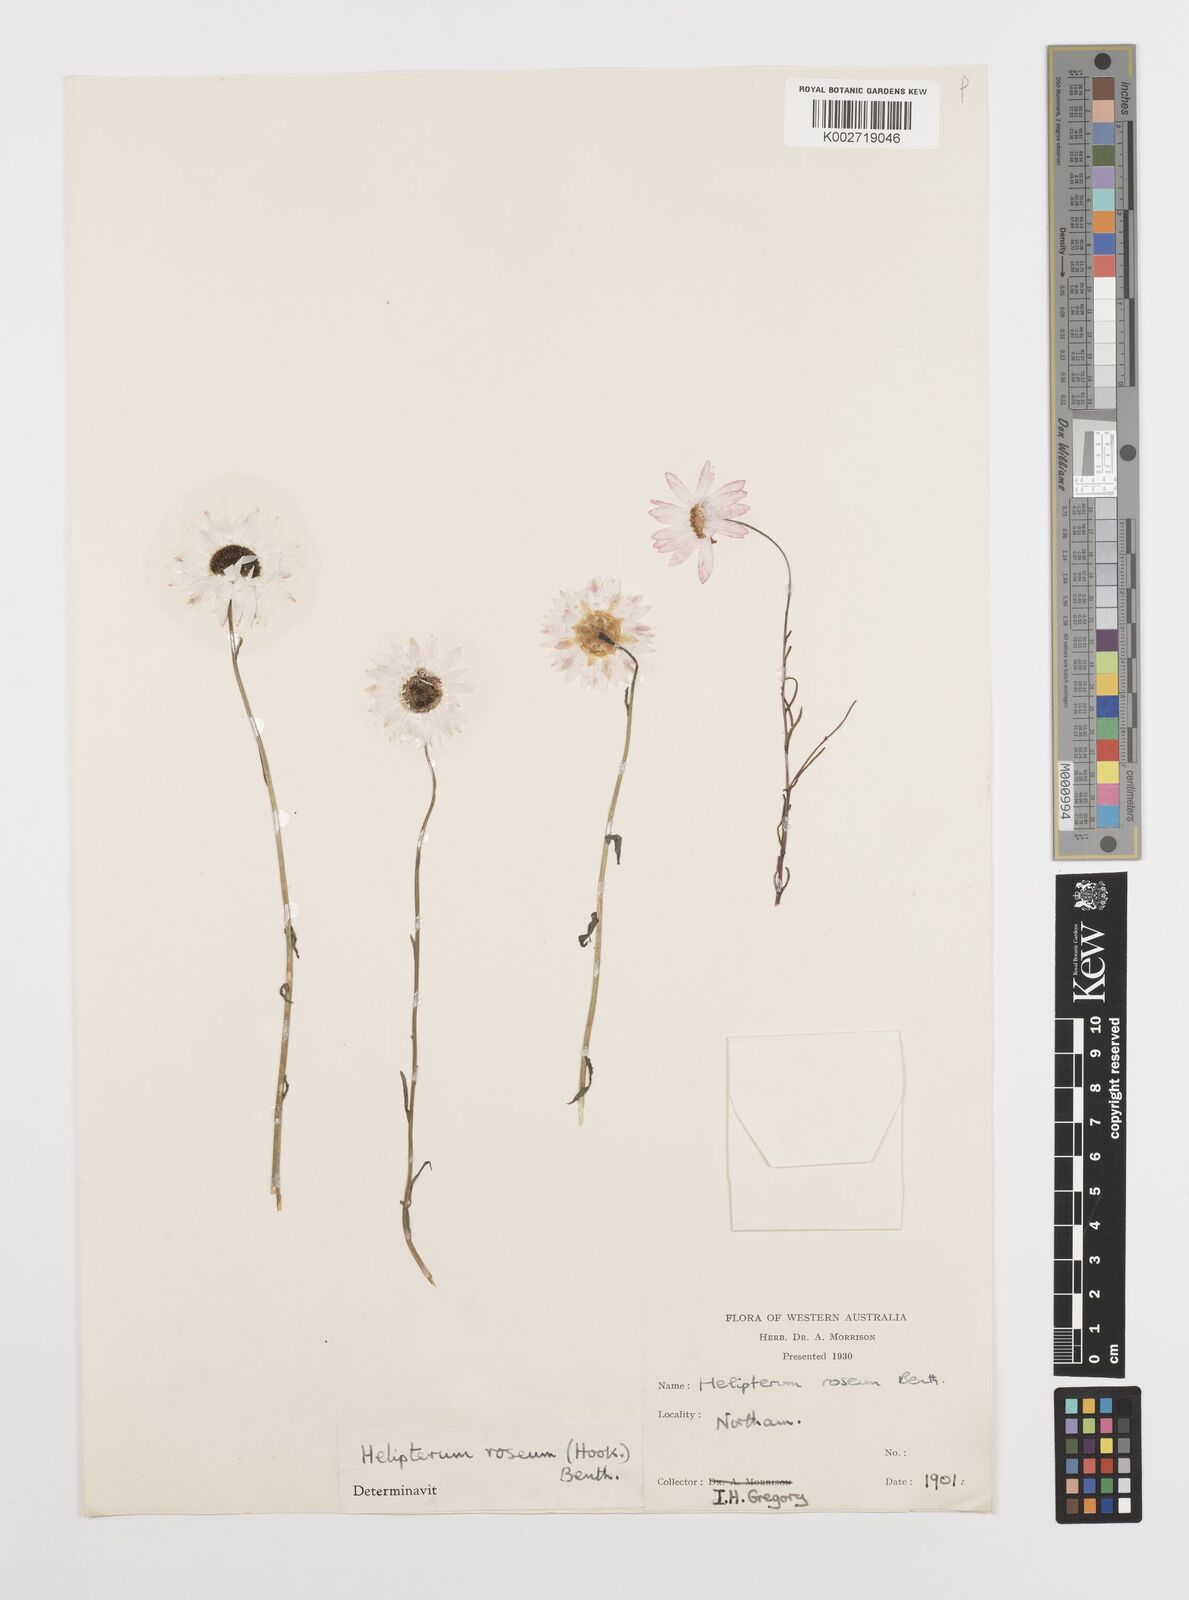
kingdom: Plantae
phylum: Tracheophyta
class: Magnoliopsida
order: Asterales
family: Asteraceae
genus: Rhodanthe
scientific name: Rhodanthe chlorocephala
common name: Rosy sunray
